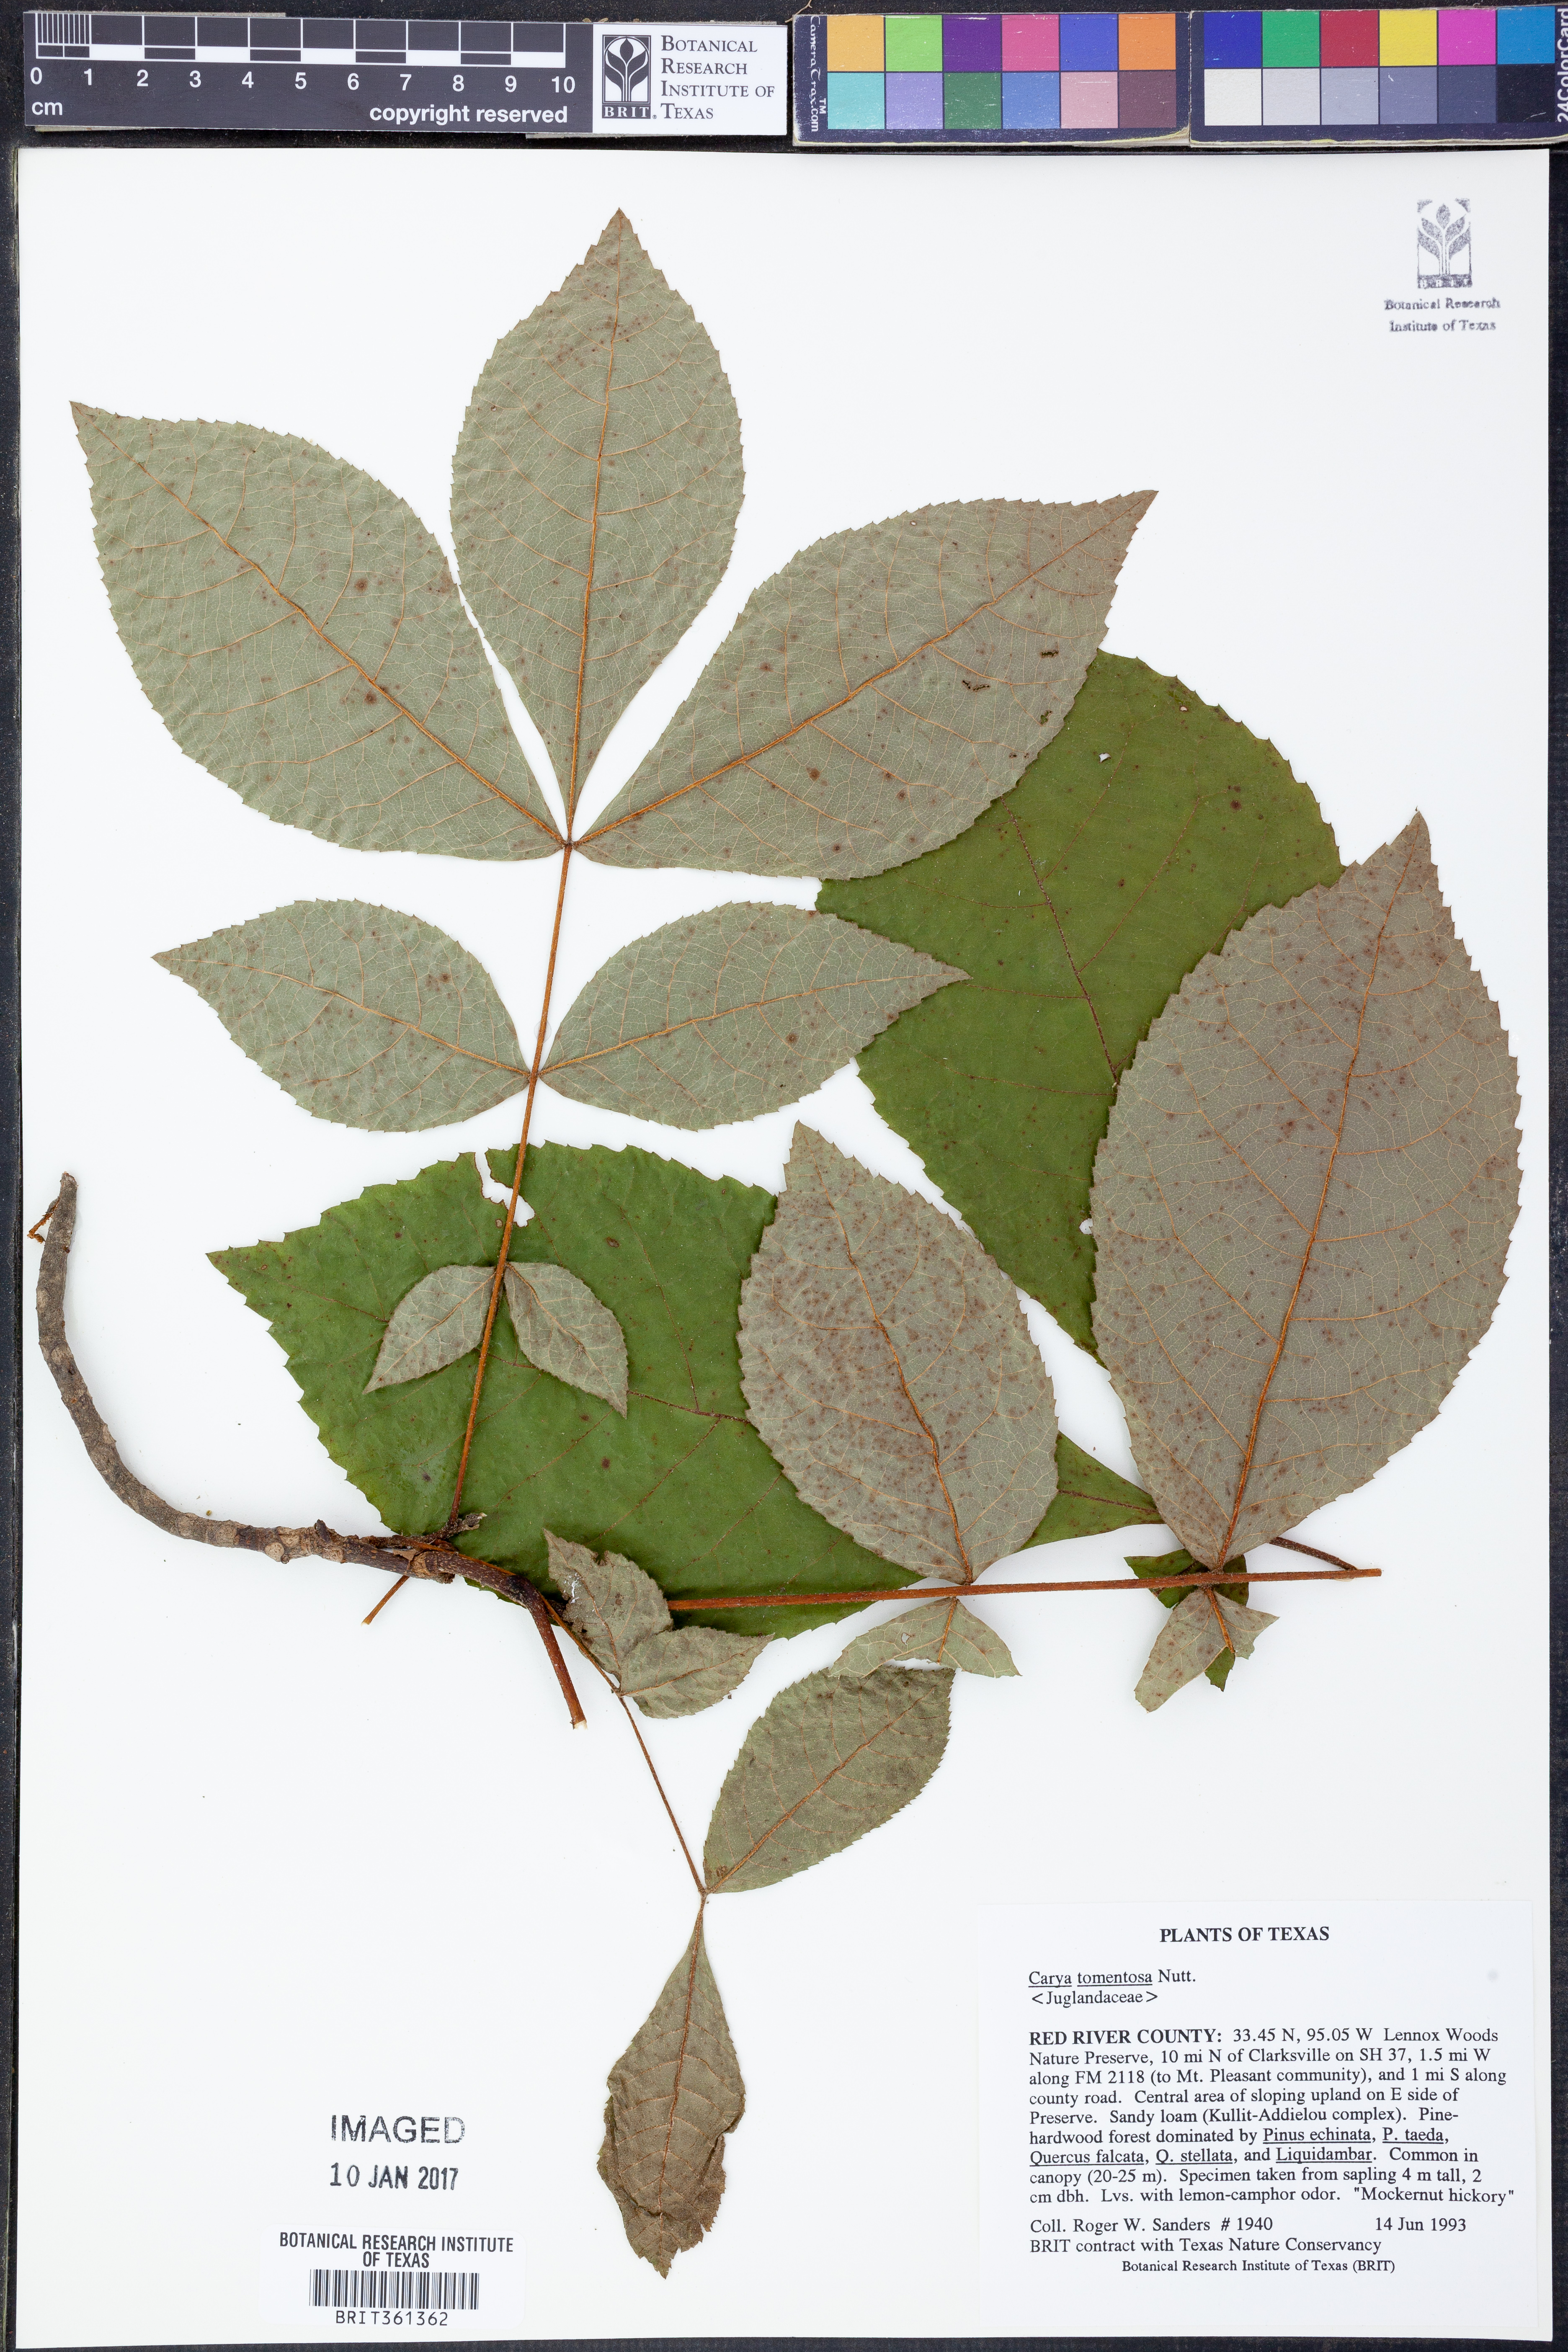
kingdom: Plantae
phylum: Tracheophyta
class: Magnoliopsida
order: Fagales
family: Juglandaceae
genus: Carya
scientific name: Carya alba
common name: Mockernut hickory
